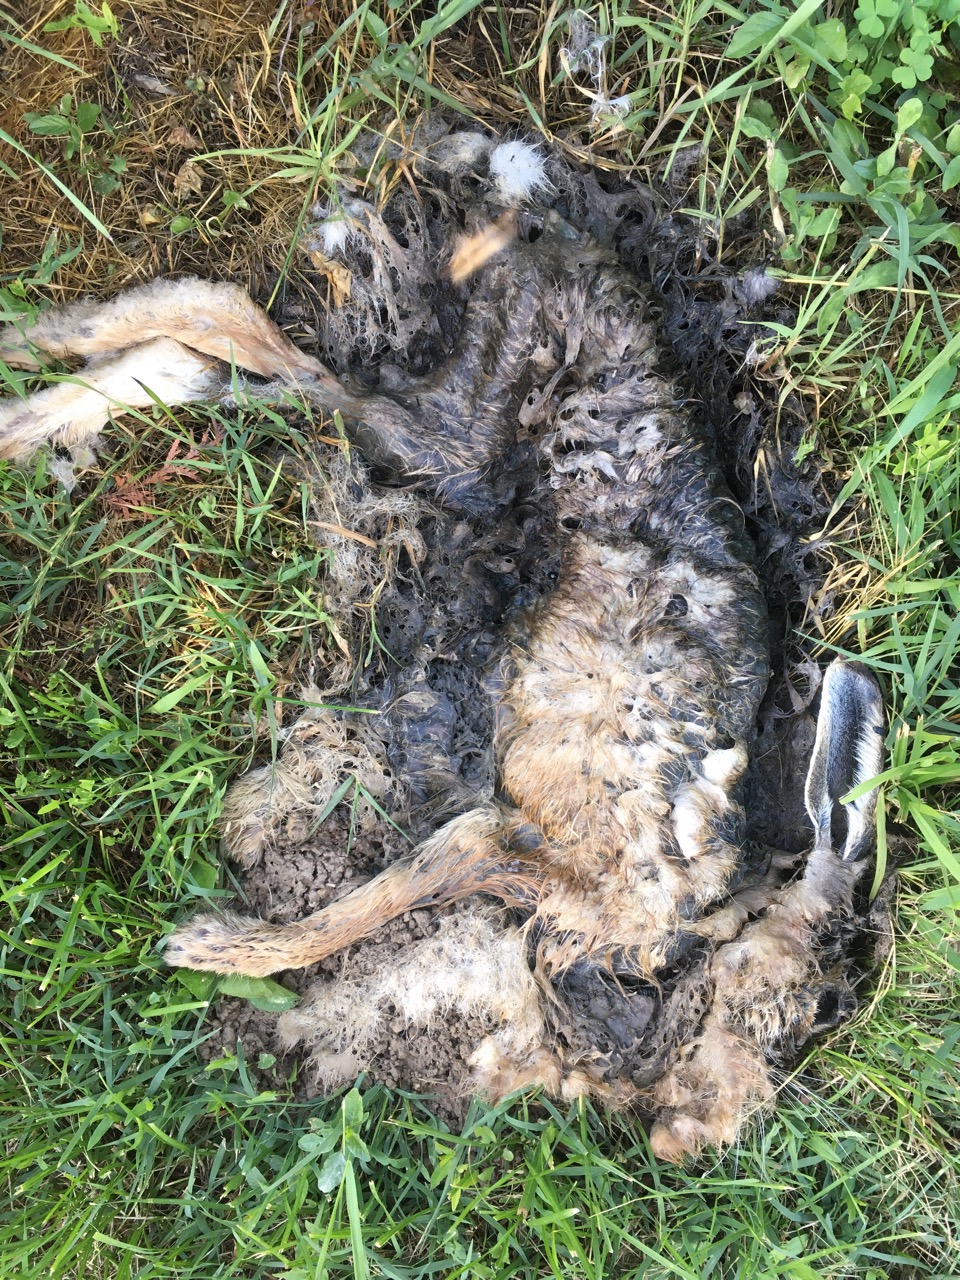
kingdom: Animalia
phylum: Chordata
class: Mammalia
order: Lagomorpha
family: Leporidae
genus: Lepus
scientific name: Lepus europaeus
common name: European hare
